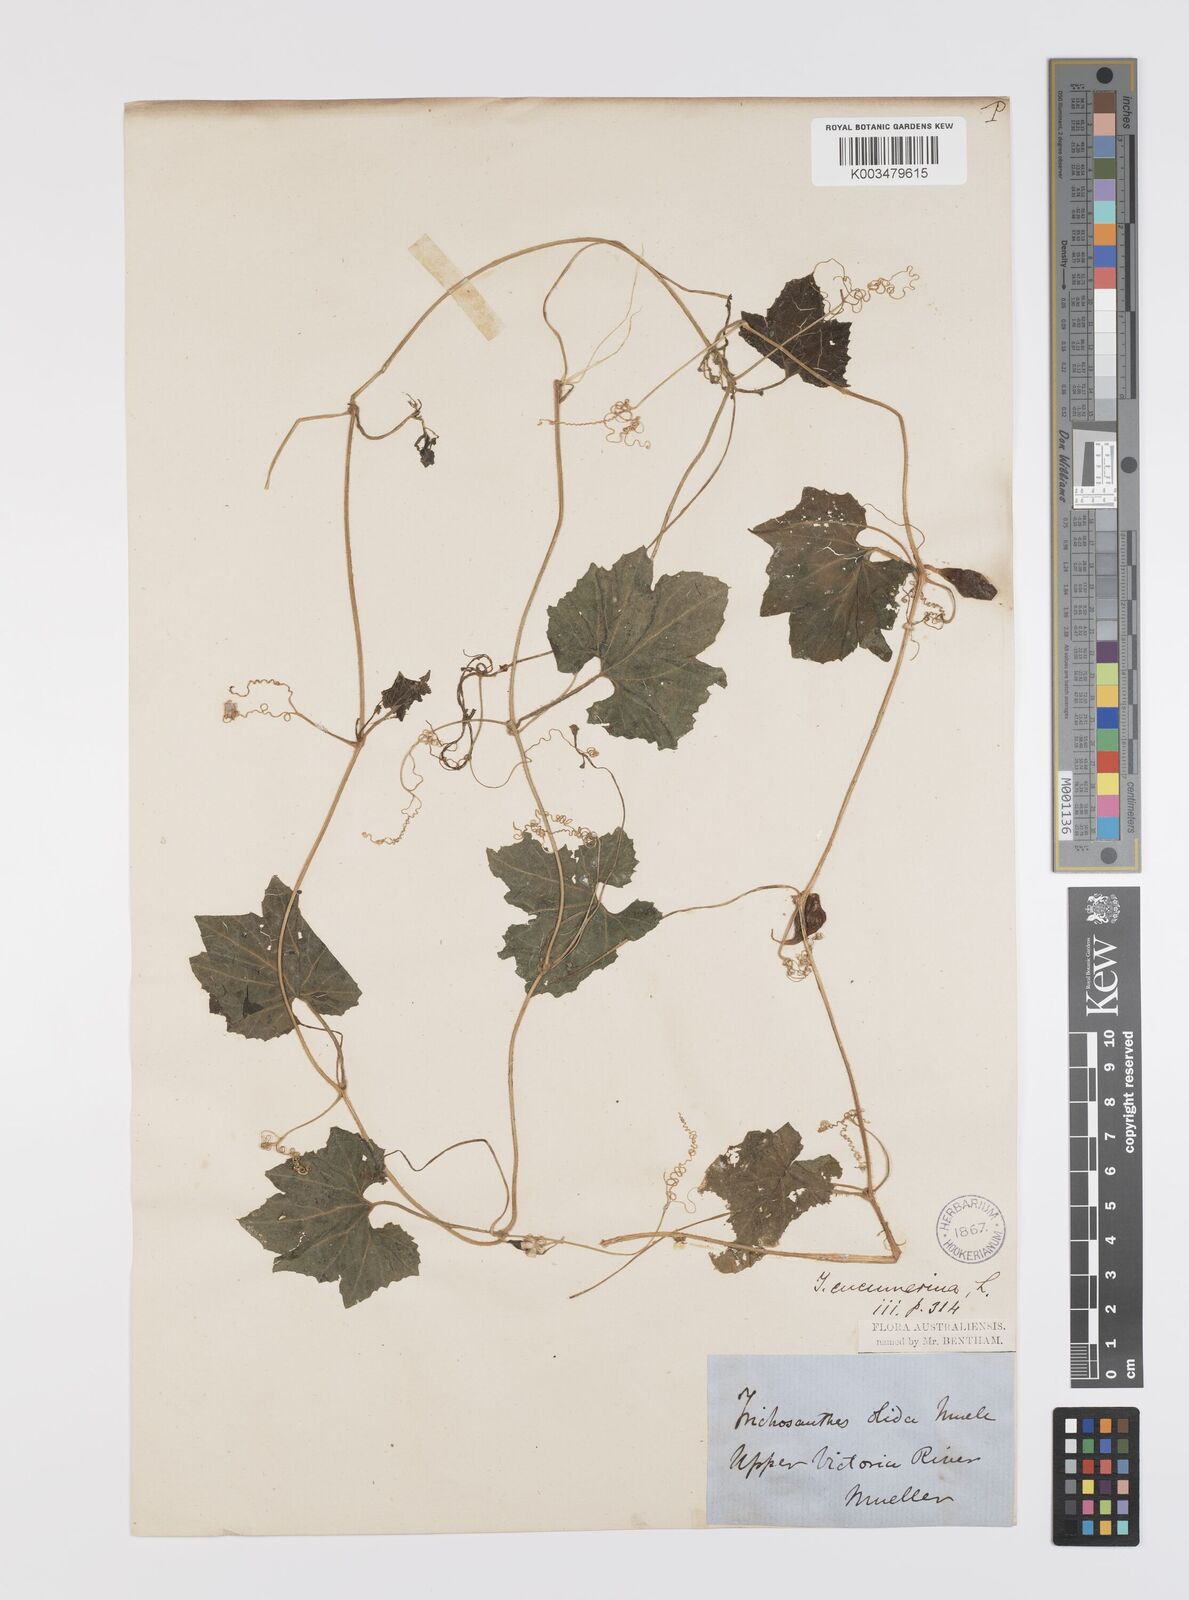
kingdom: Plantae
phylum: Tracheophyta
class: Magnoliopsida
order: Cucurbitales
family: Cucurbitaceae
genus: Trichosanthes
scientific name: Trichosanthes cucumerina
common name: Snakegourd
